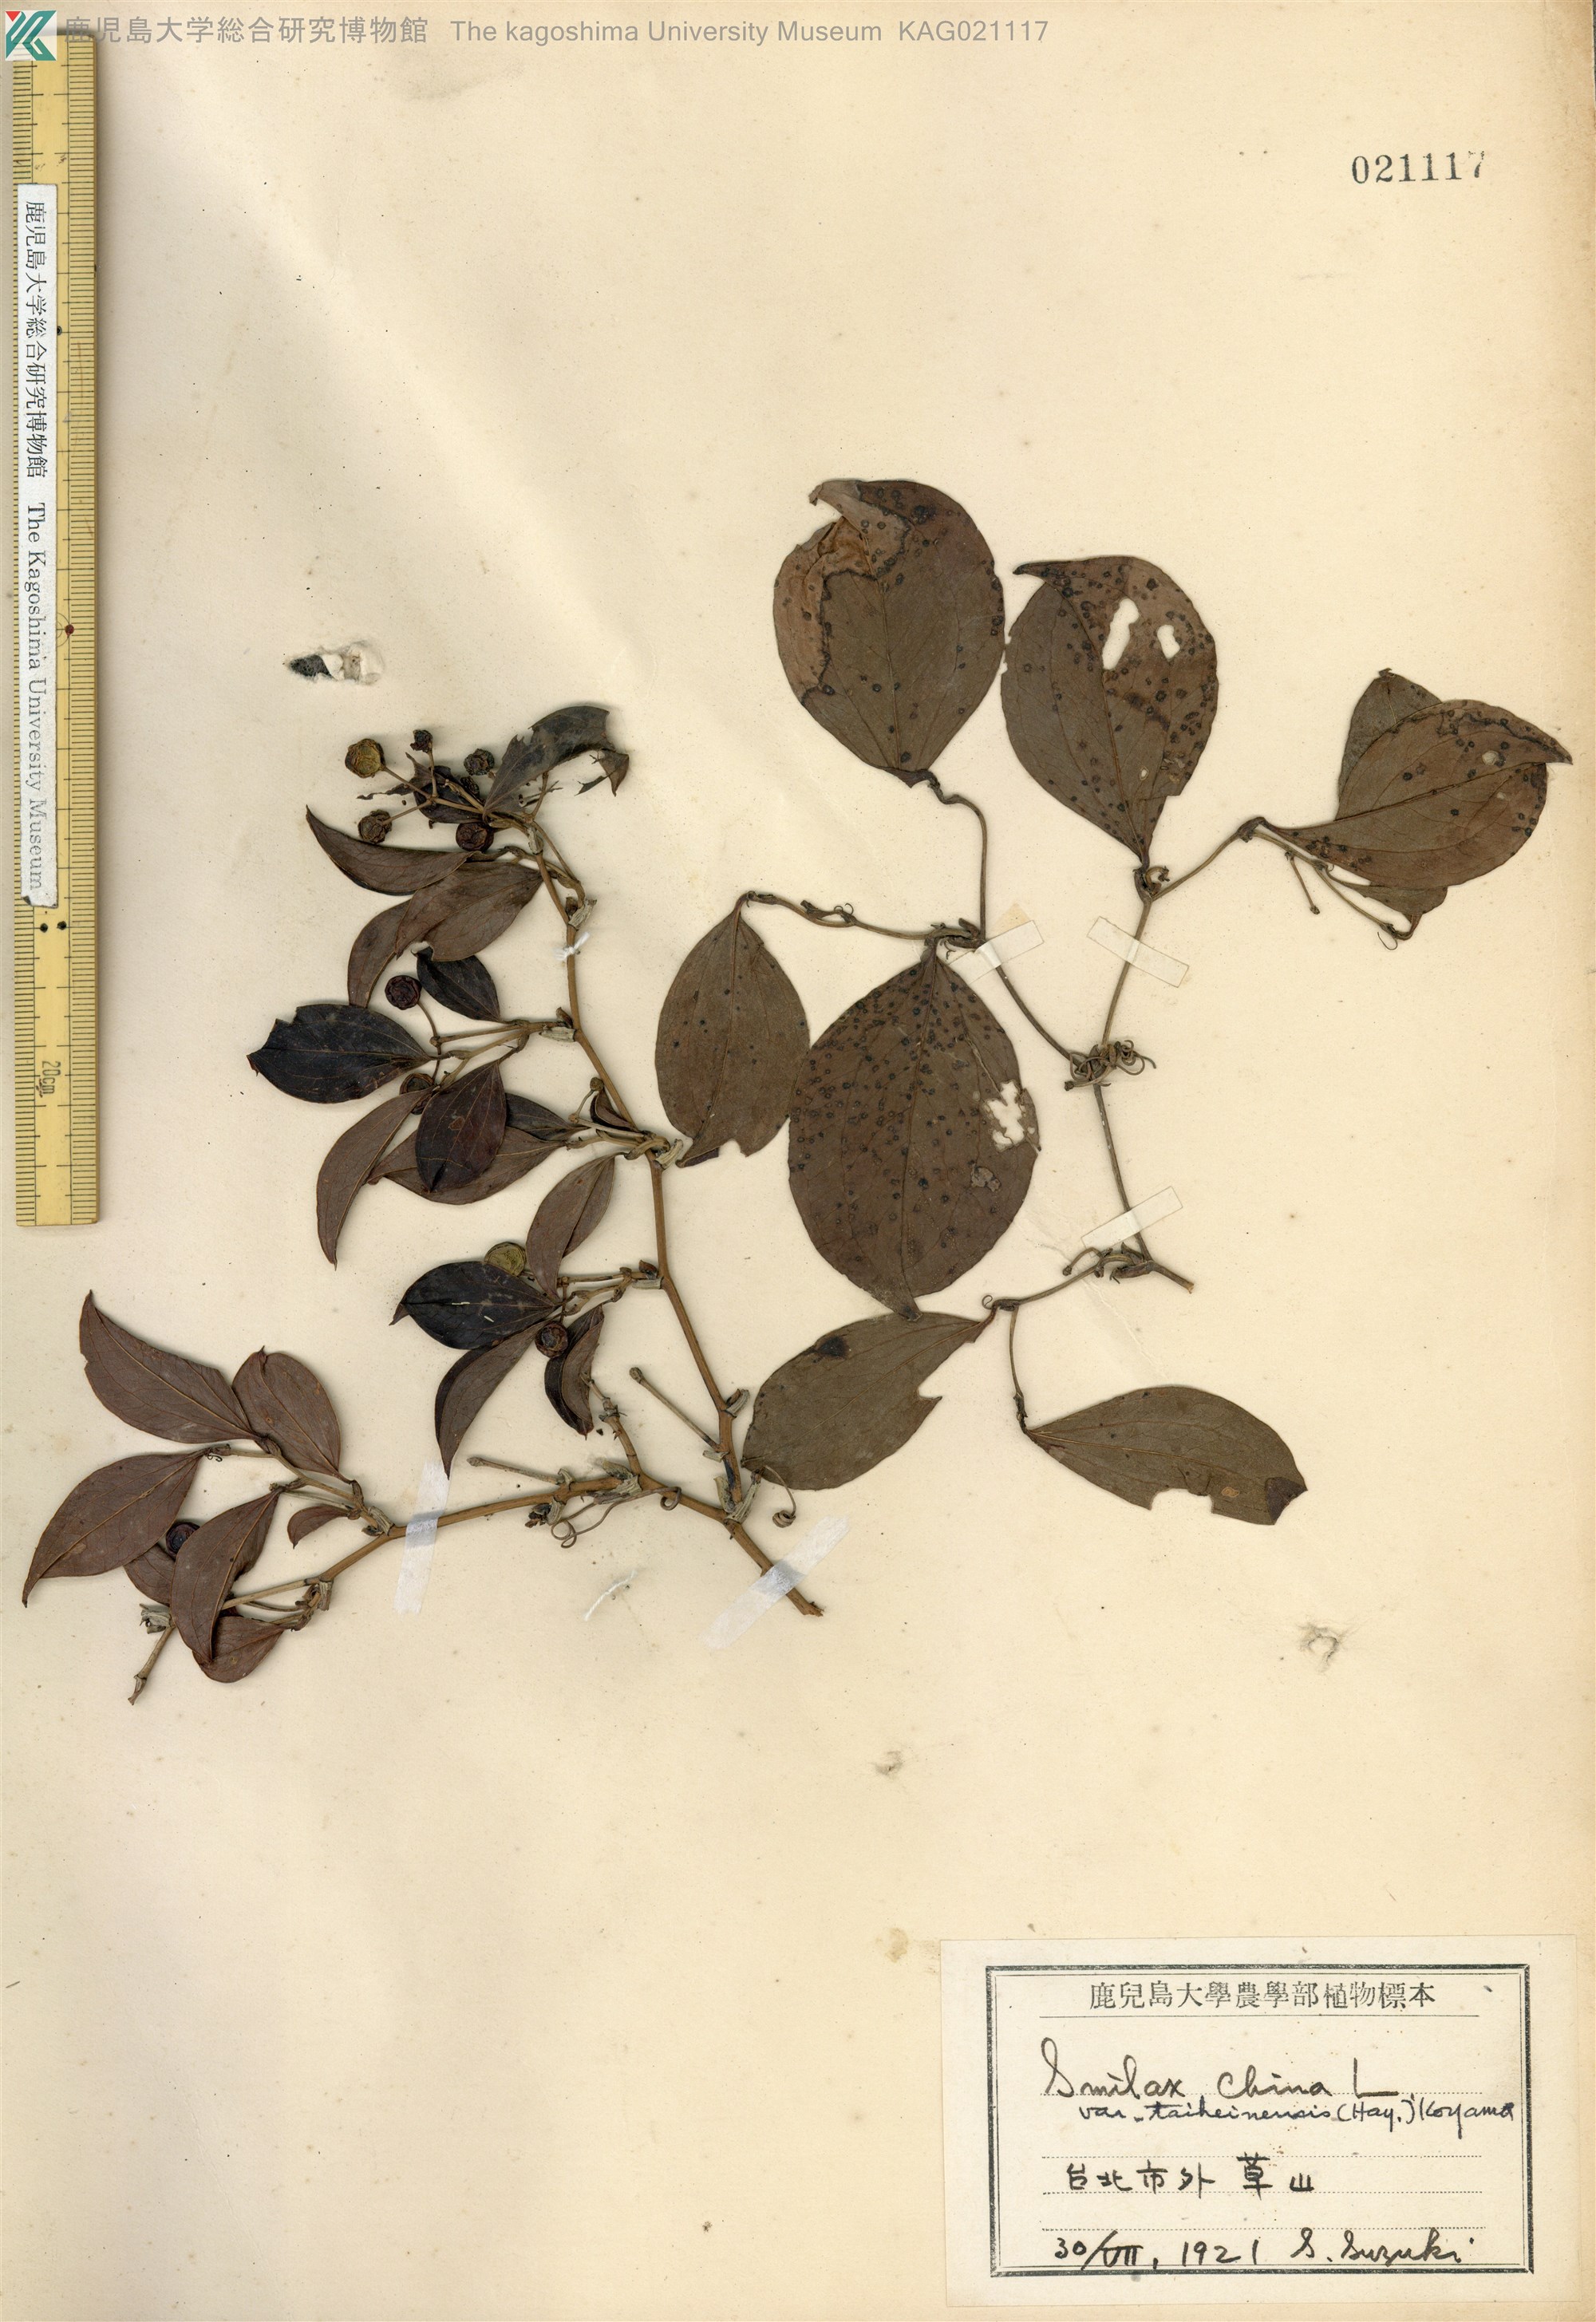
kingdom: Plantae
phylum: Tracheophyta
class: Liliopsida
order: Liliales
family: Smilacaceae
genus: Smilax
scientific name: Smilax china
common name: Chinaroot
